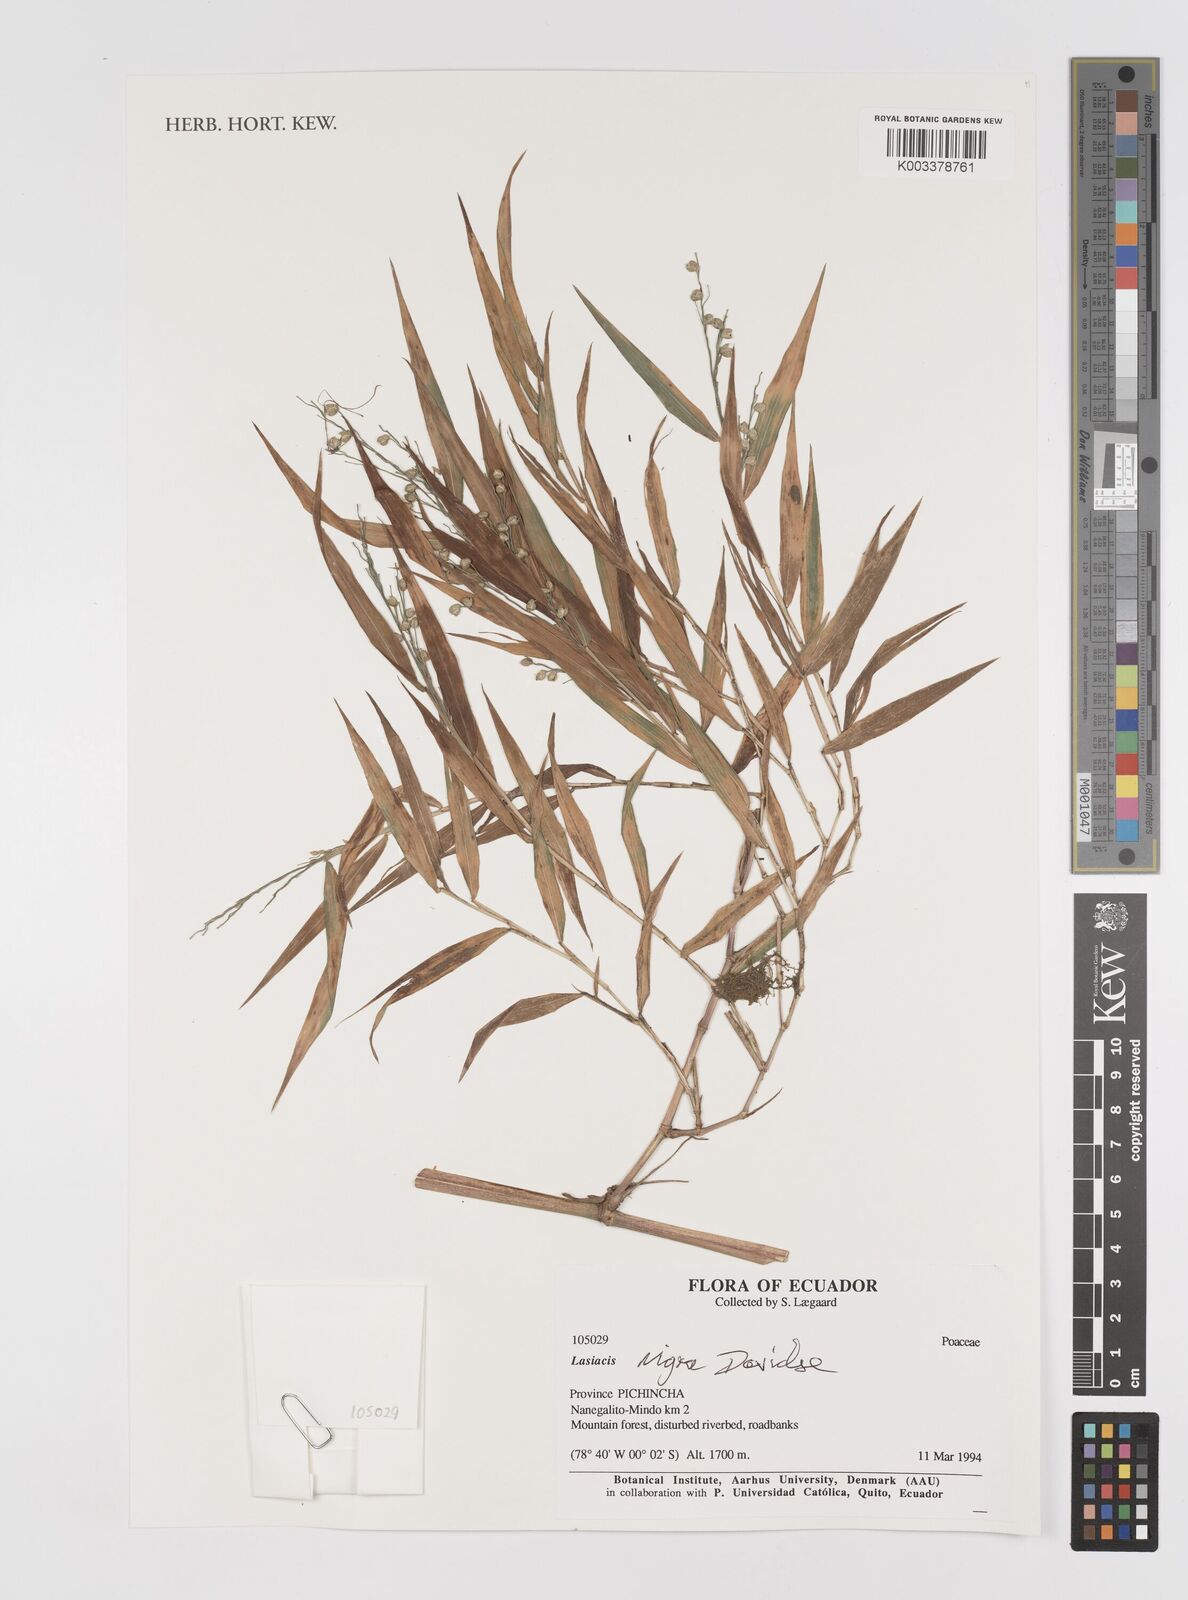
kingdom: Plantae
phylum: Tracheophyta
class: Liliopsida
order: Poales
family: Poaceae
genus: Lasiacis
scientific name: Lasiacis nigra
